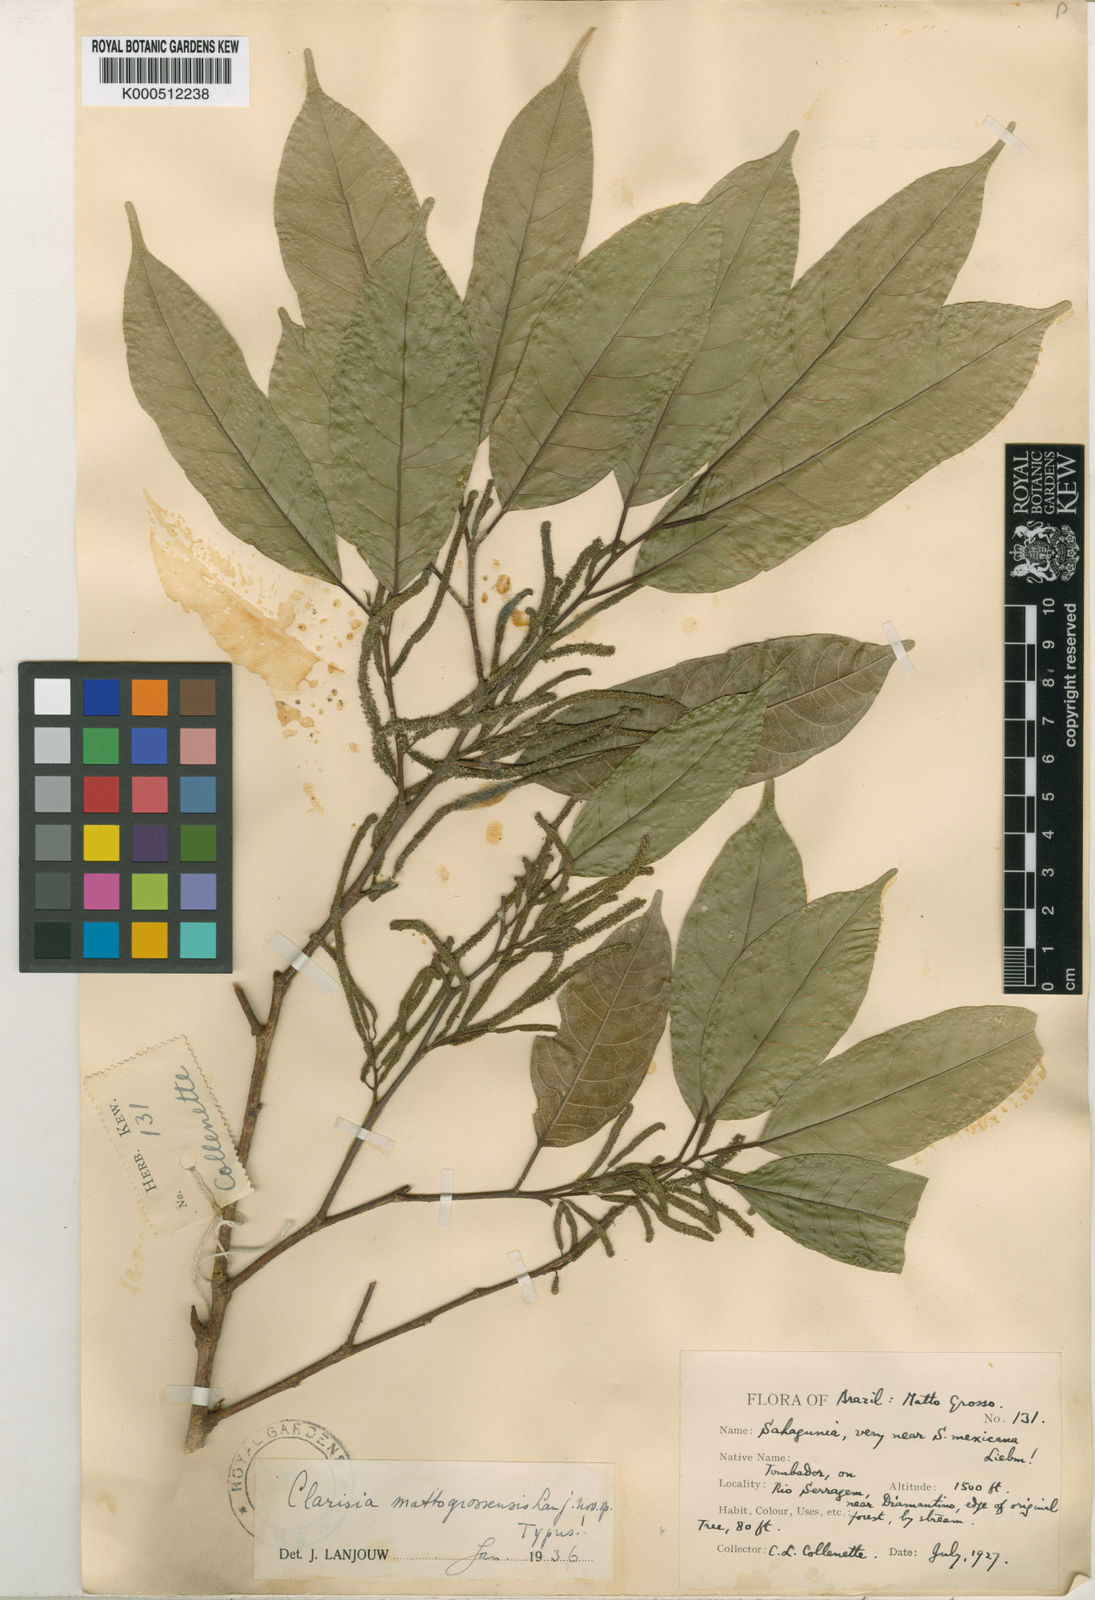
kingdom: Plantae
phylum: Tracheophyta
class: Magnoliopsida
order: Rosales
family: Moraceae
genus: Clarisia
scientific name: Clarisia biflora
